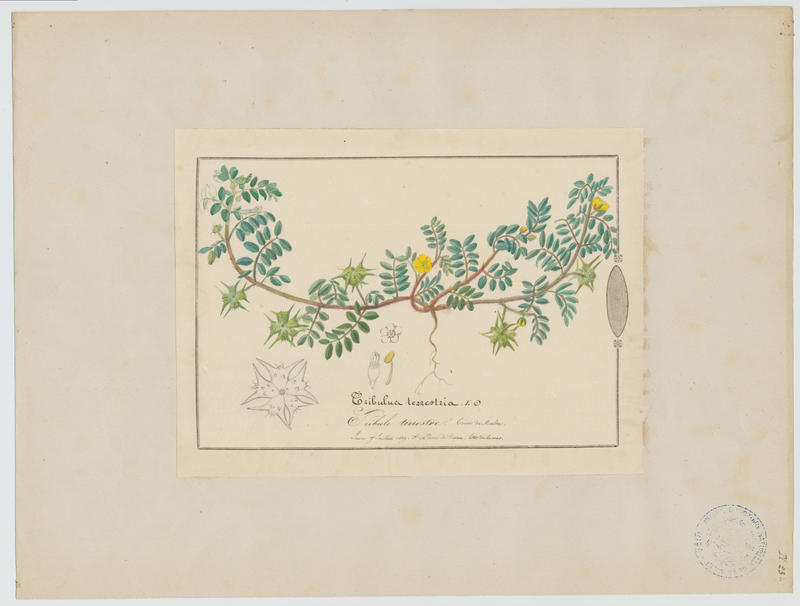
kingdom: Plantae
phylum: Tracheophyta
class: Magnoliopsida
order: Zygophyllales
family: Zygophyllaceae
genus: Tribulus
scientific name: Tribulus terrestris
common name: Puncturevine
